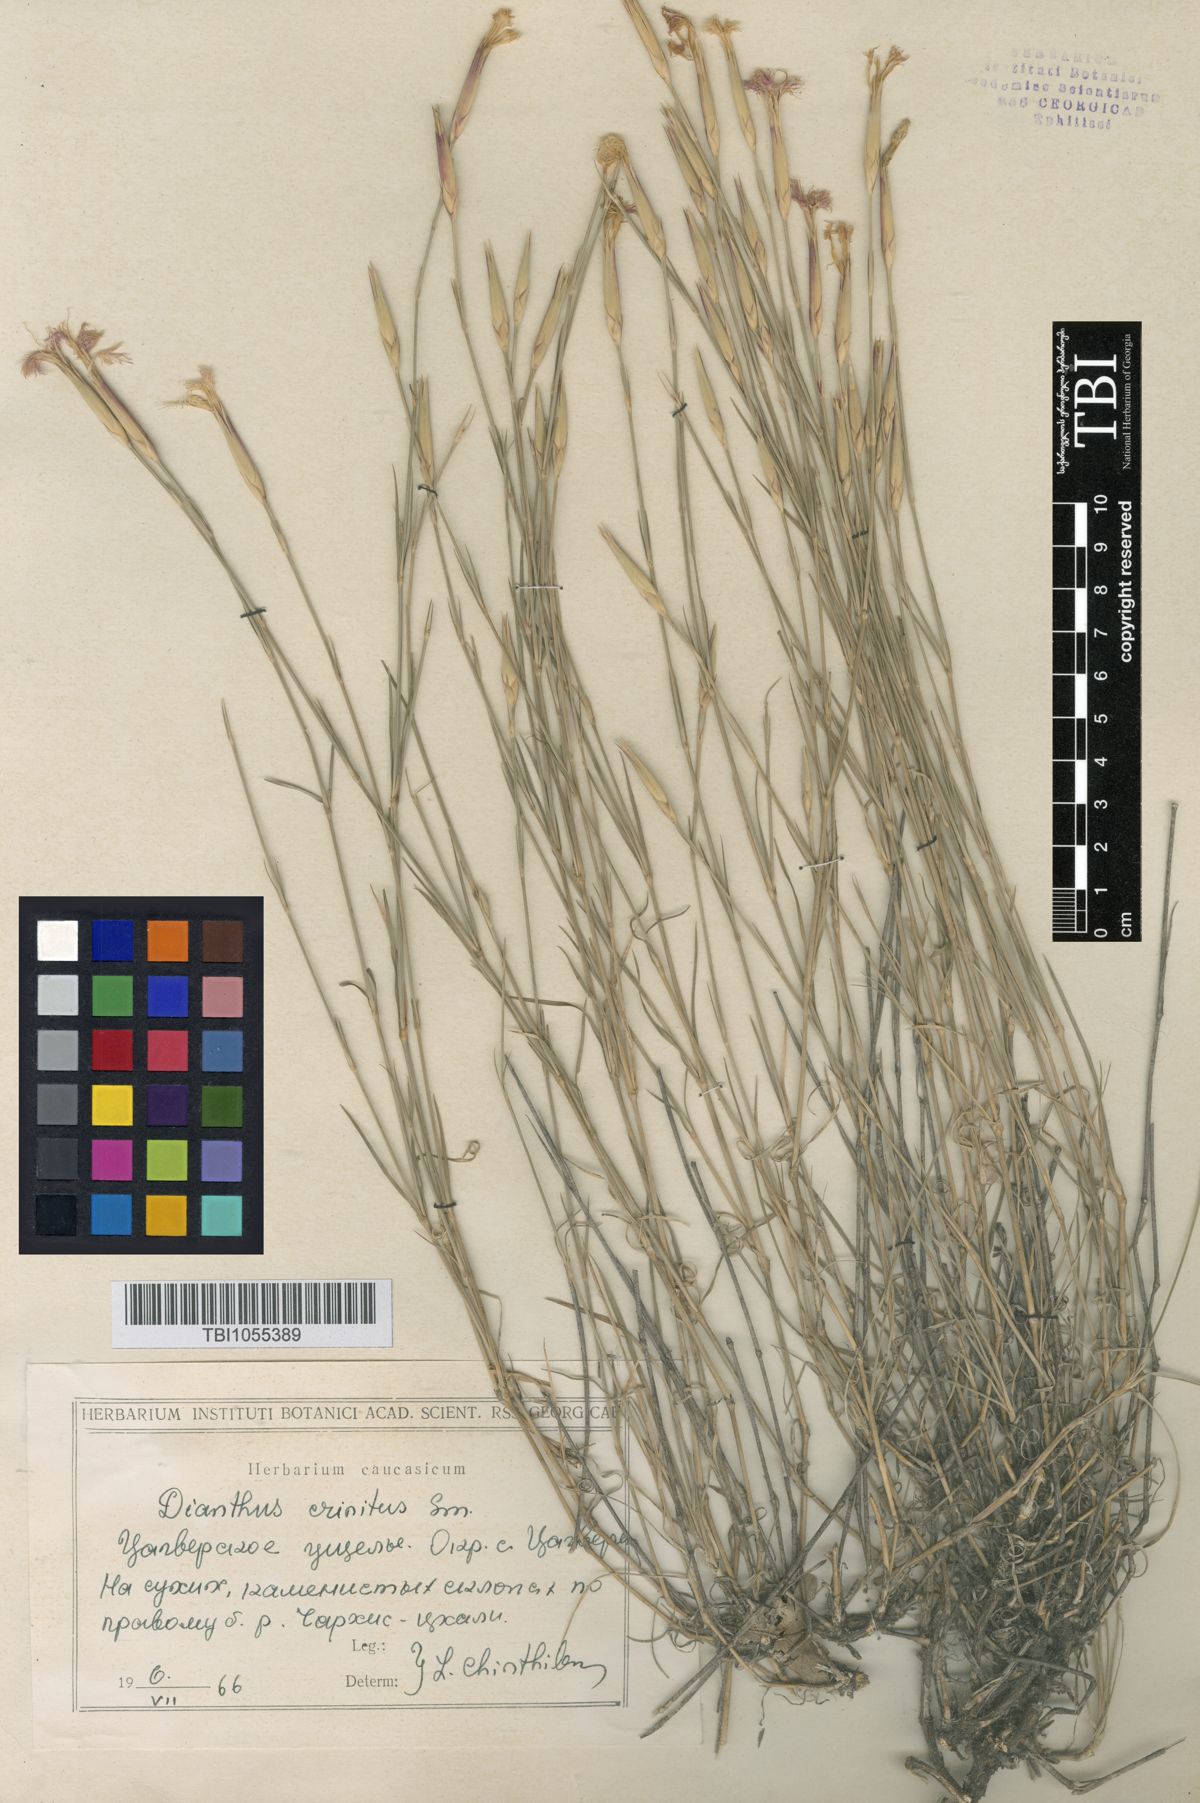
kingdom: Plantae
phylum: Tracheophyta
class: Magnoliopsida
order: Caryophyllales
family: Caryophyllaceae
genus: Dianthus
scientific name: Dianthus crinitus
